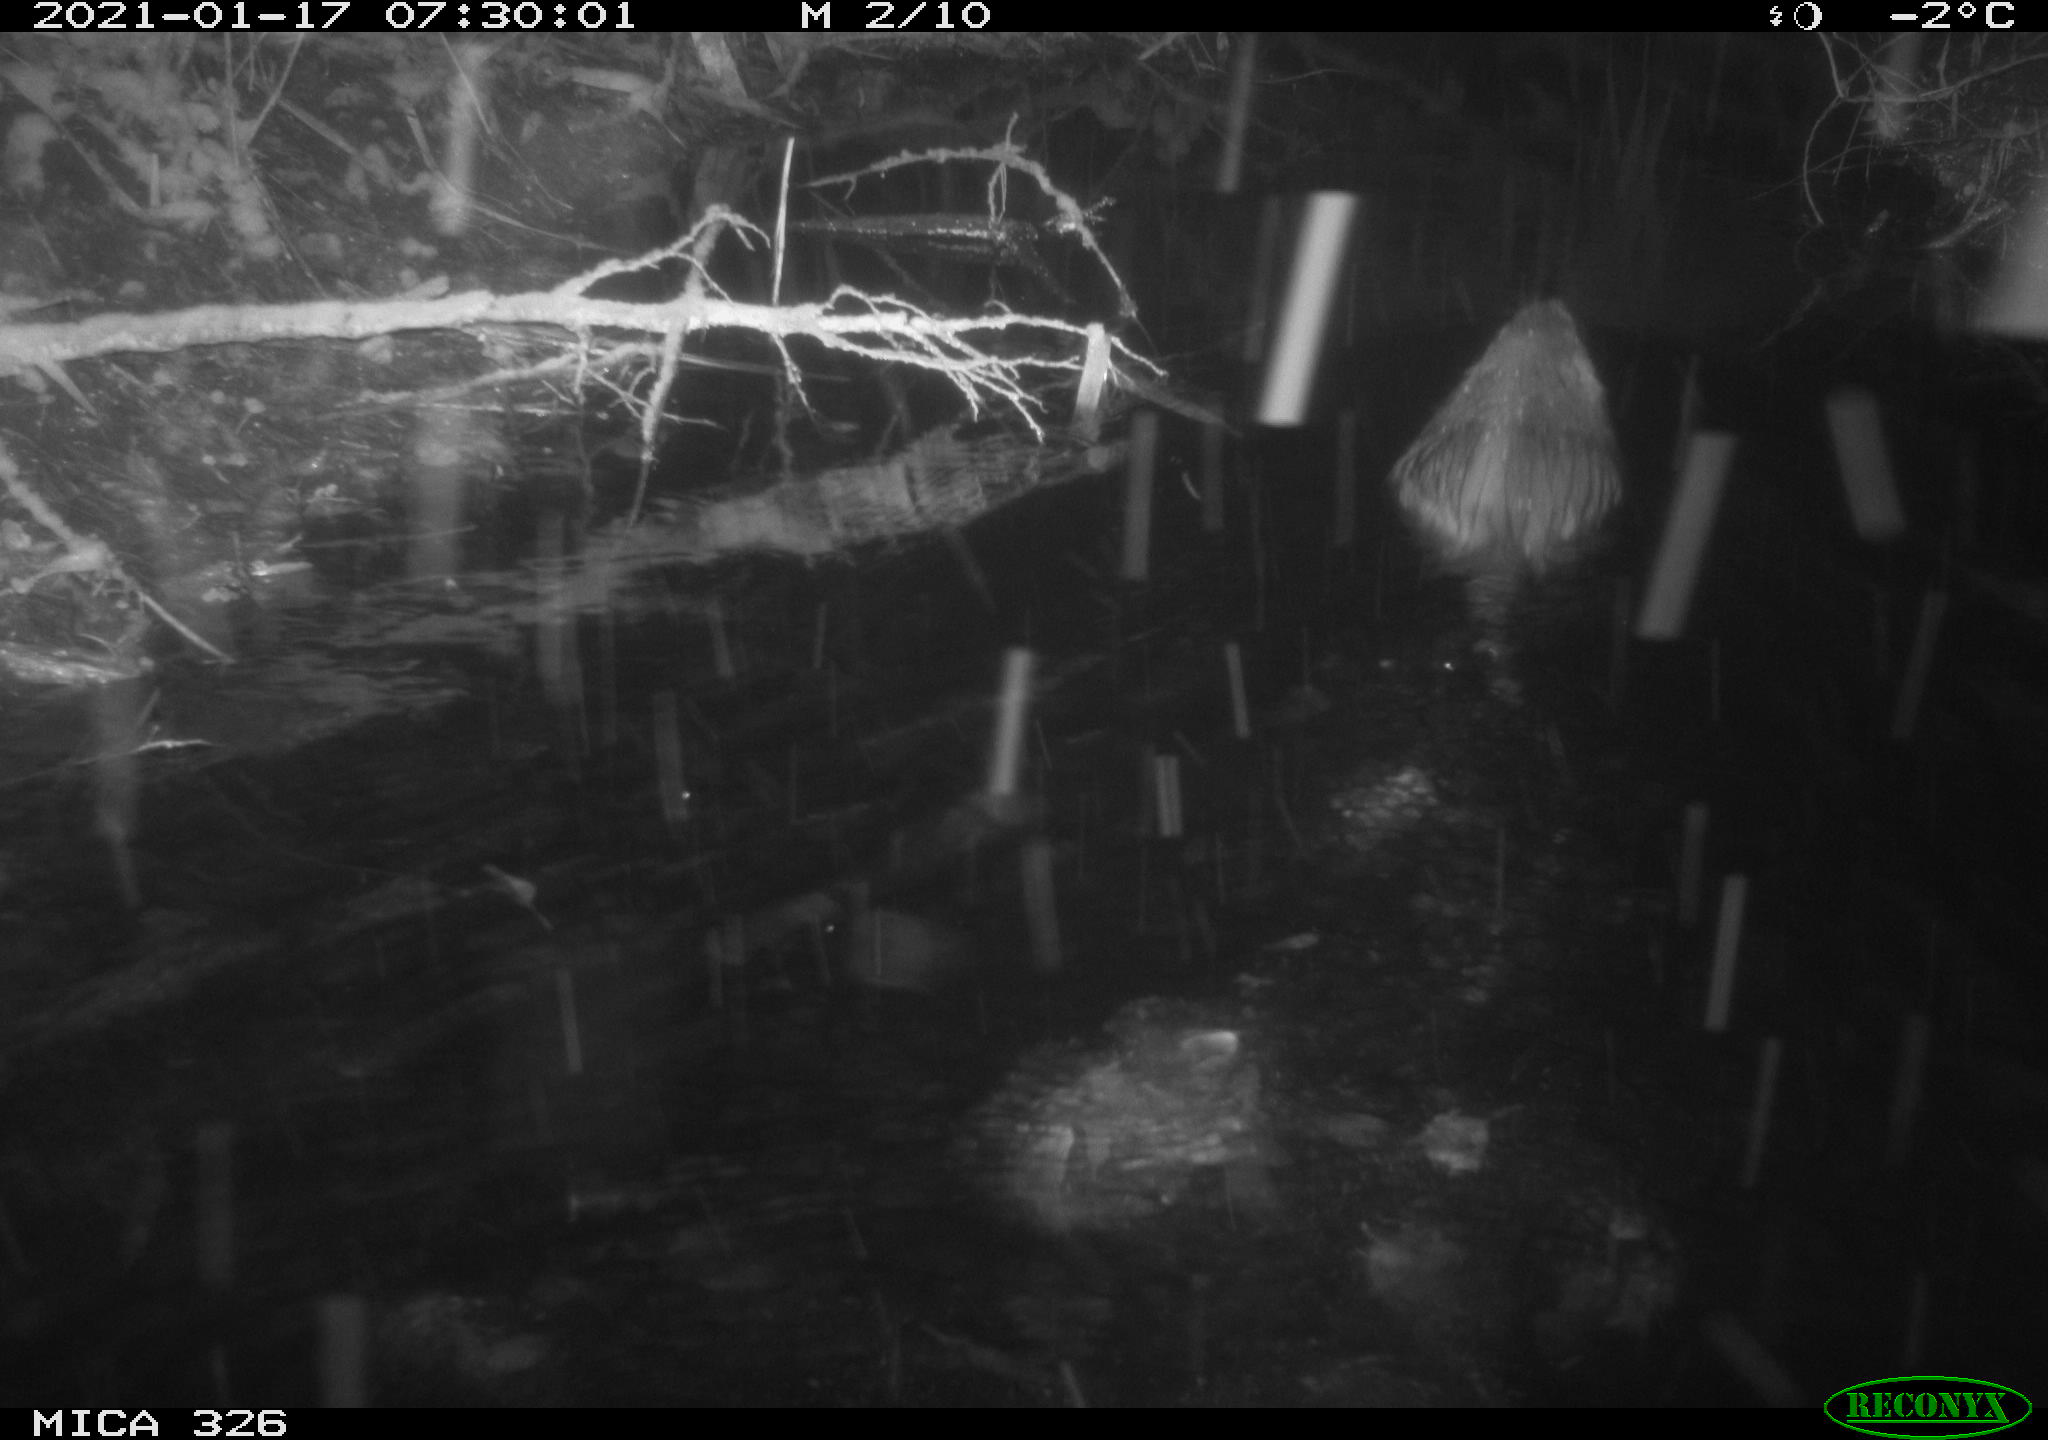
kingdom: Animalia
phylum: Chordata
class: Mammalia
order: Rodentia
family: Myocastoridae
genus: Myocastor
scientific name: Myocastor coypus
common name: Coypu
